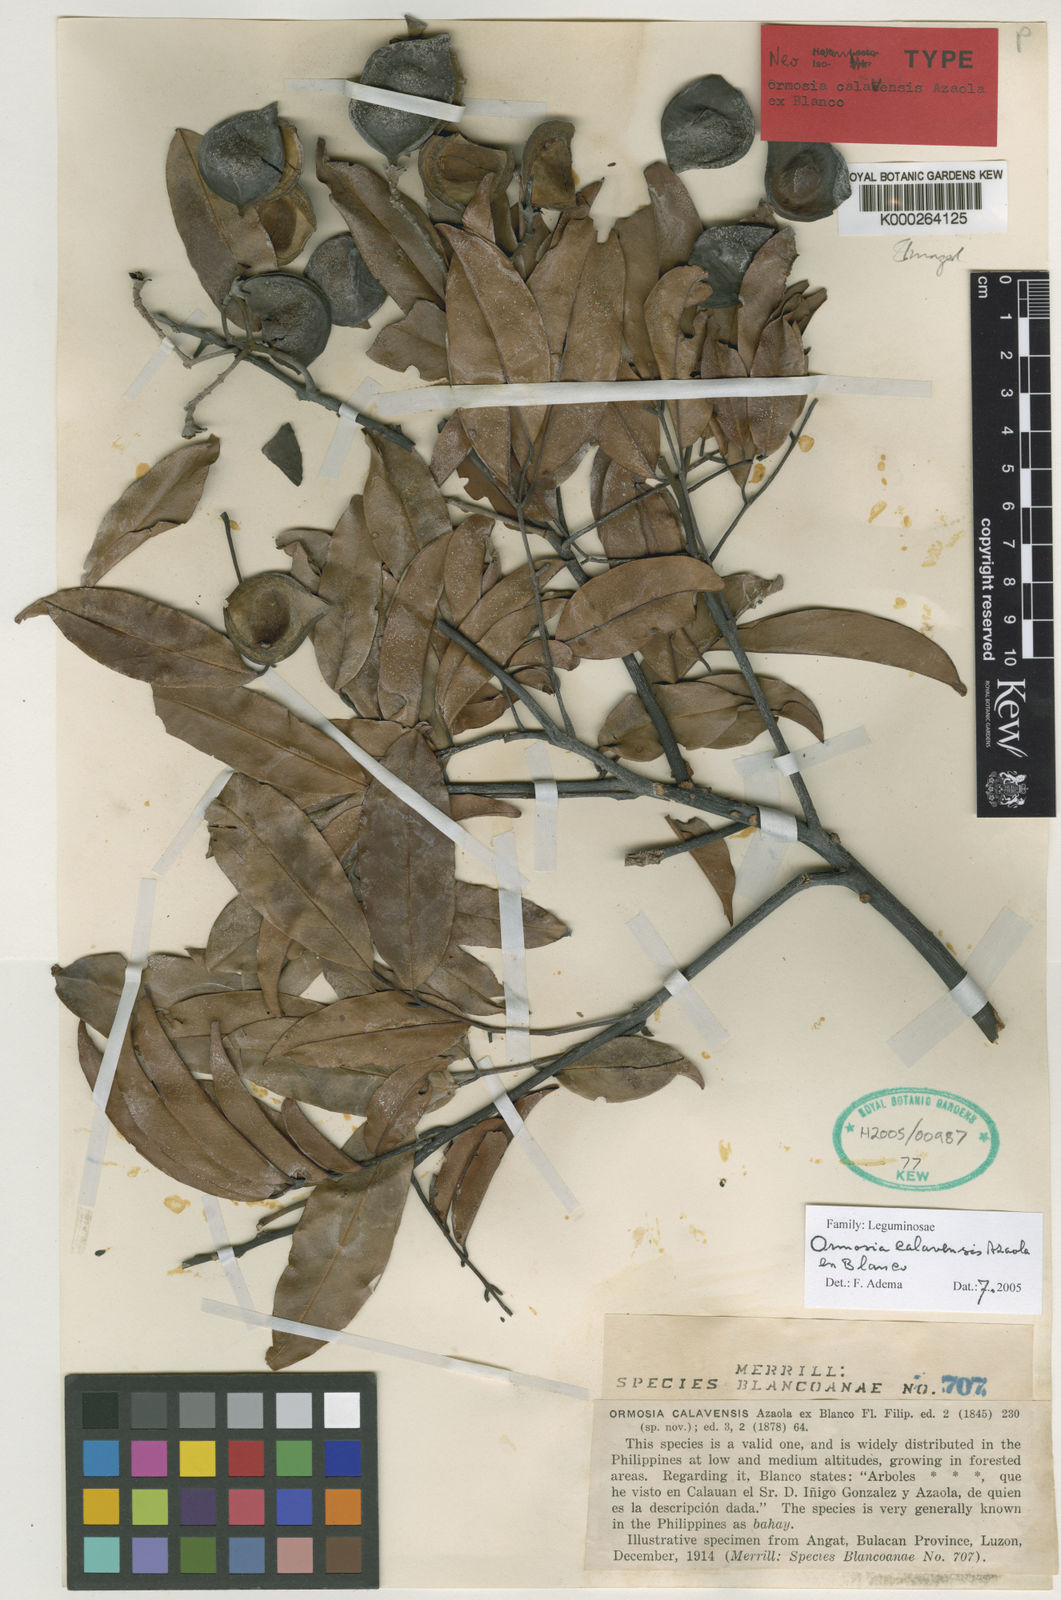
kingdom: Plantae
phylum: Tracheophyta
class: Magnoliopsida
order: Fabales
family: Fabaceae
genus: Ormosia
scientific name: Ormosia
